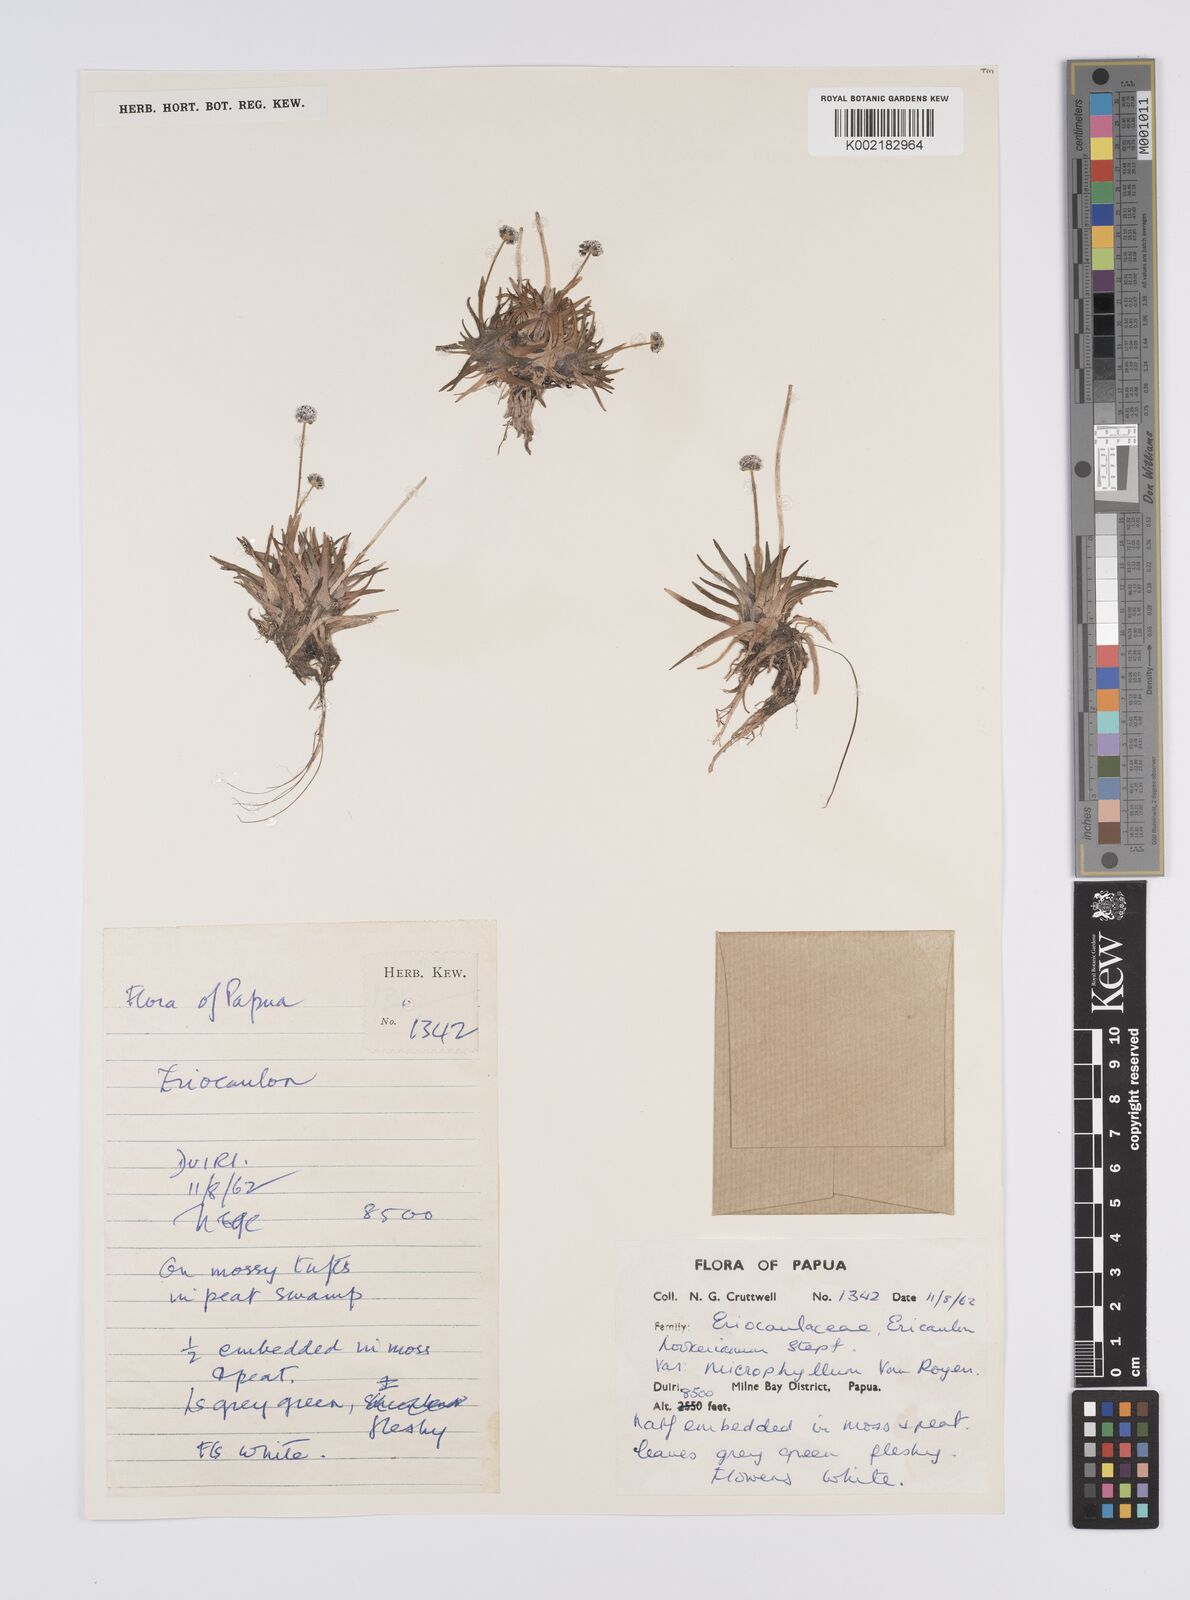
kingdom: Plantae
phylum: Tracheophyta
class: Liliopsida
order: Poales
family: Eriocaulaceae
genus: Eriocaulon
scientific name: Eriocaulon hookerianum
